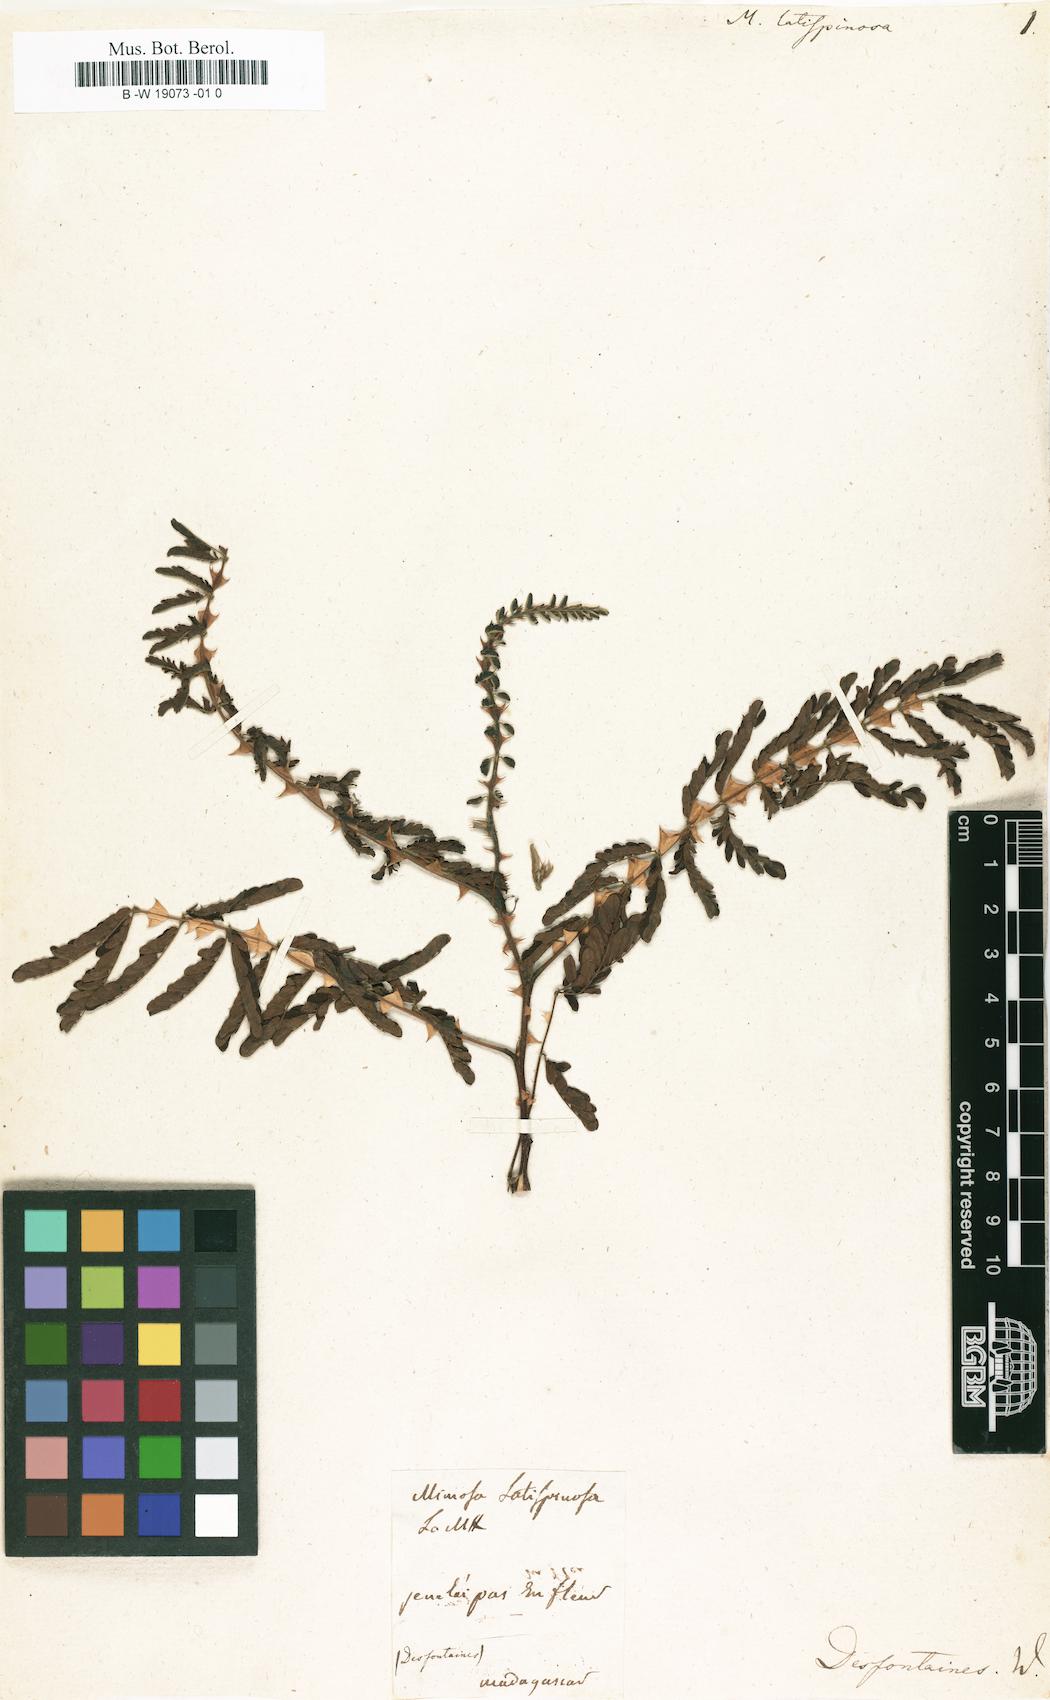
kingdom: Plantae
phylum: Tracheophyta
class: Magnoliopsida
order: Fabales
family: Fabaceae
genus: Mimosa
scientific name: Mimosa latispinosa
